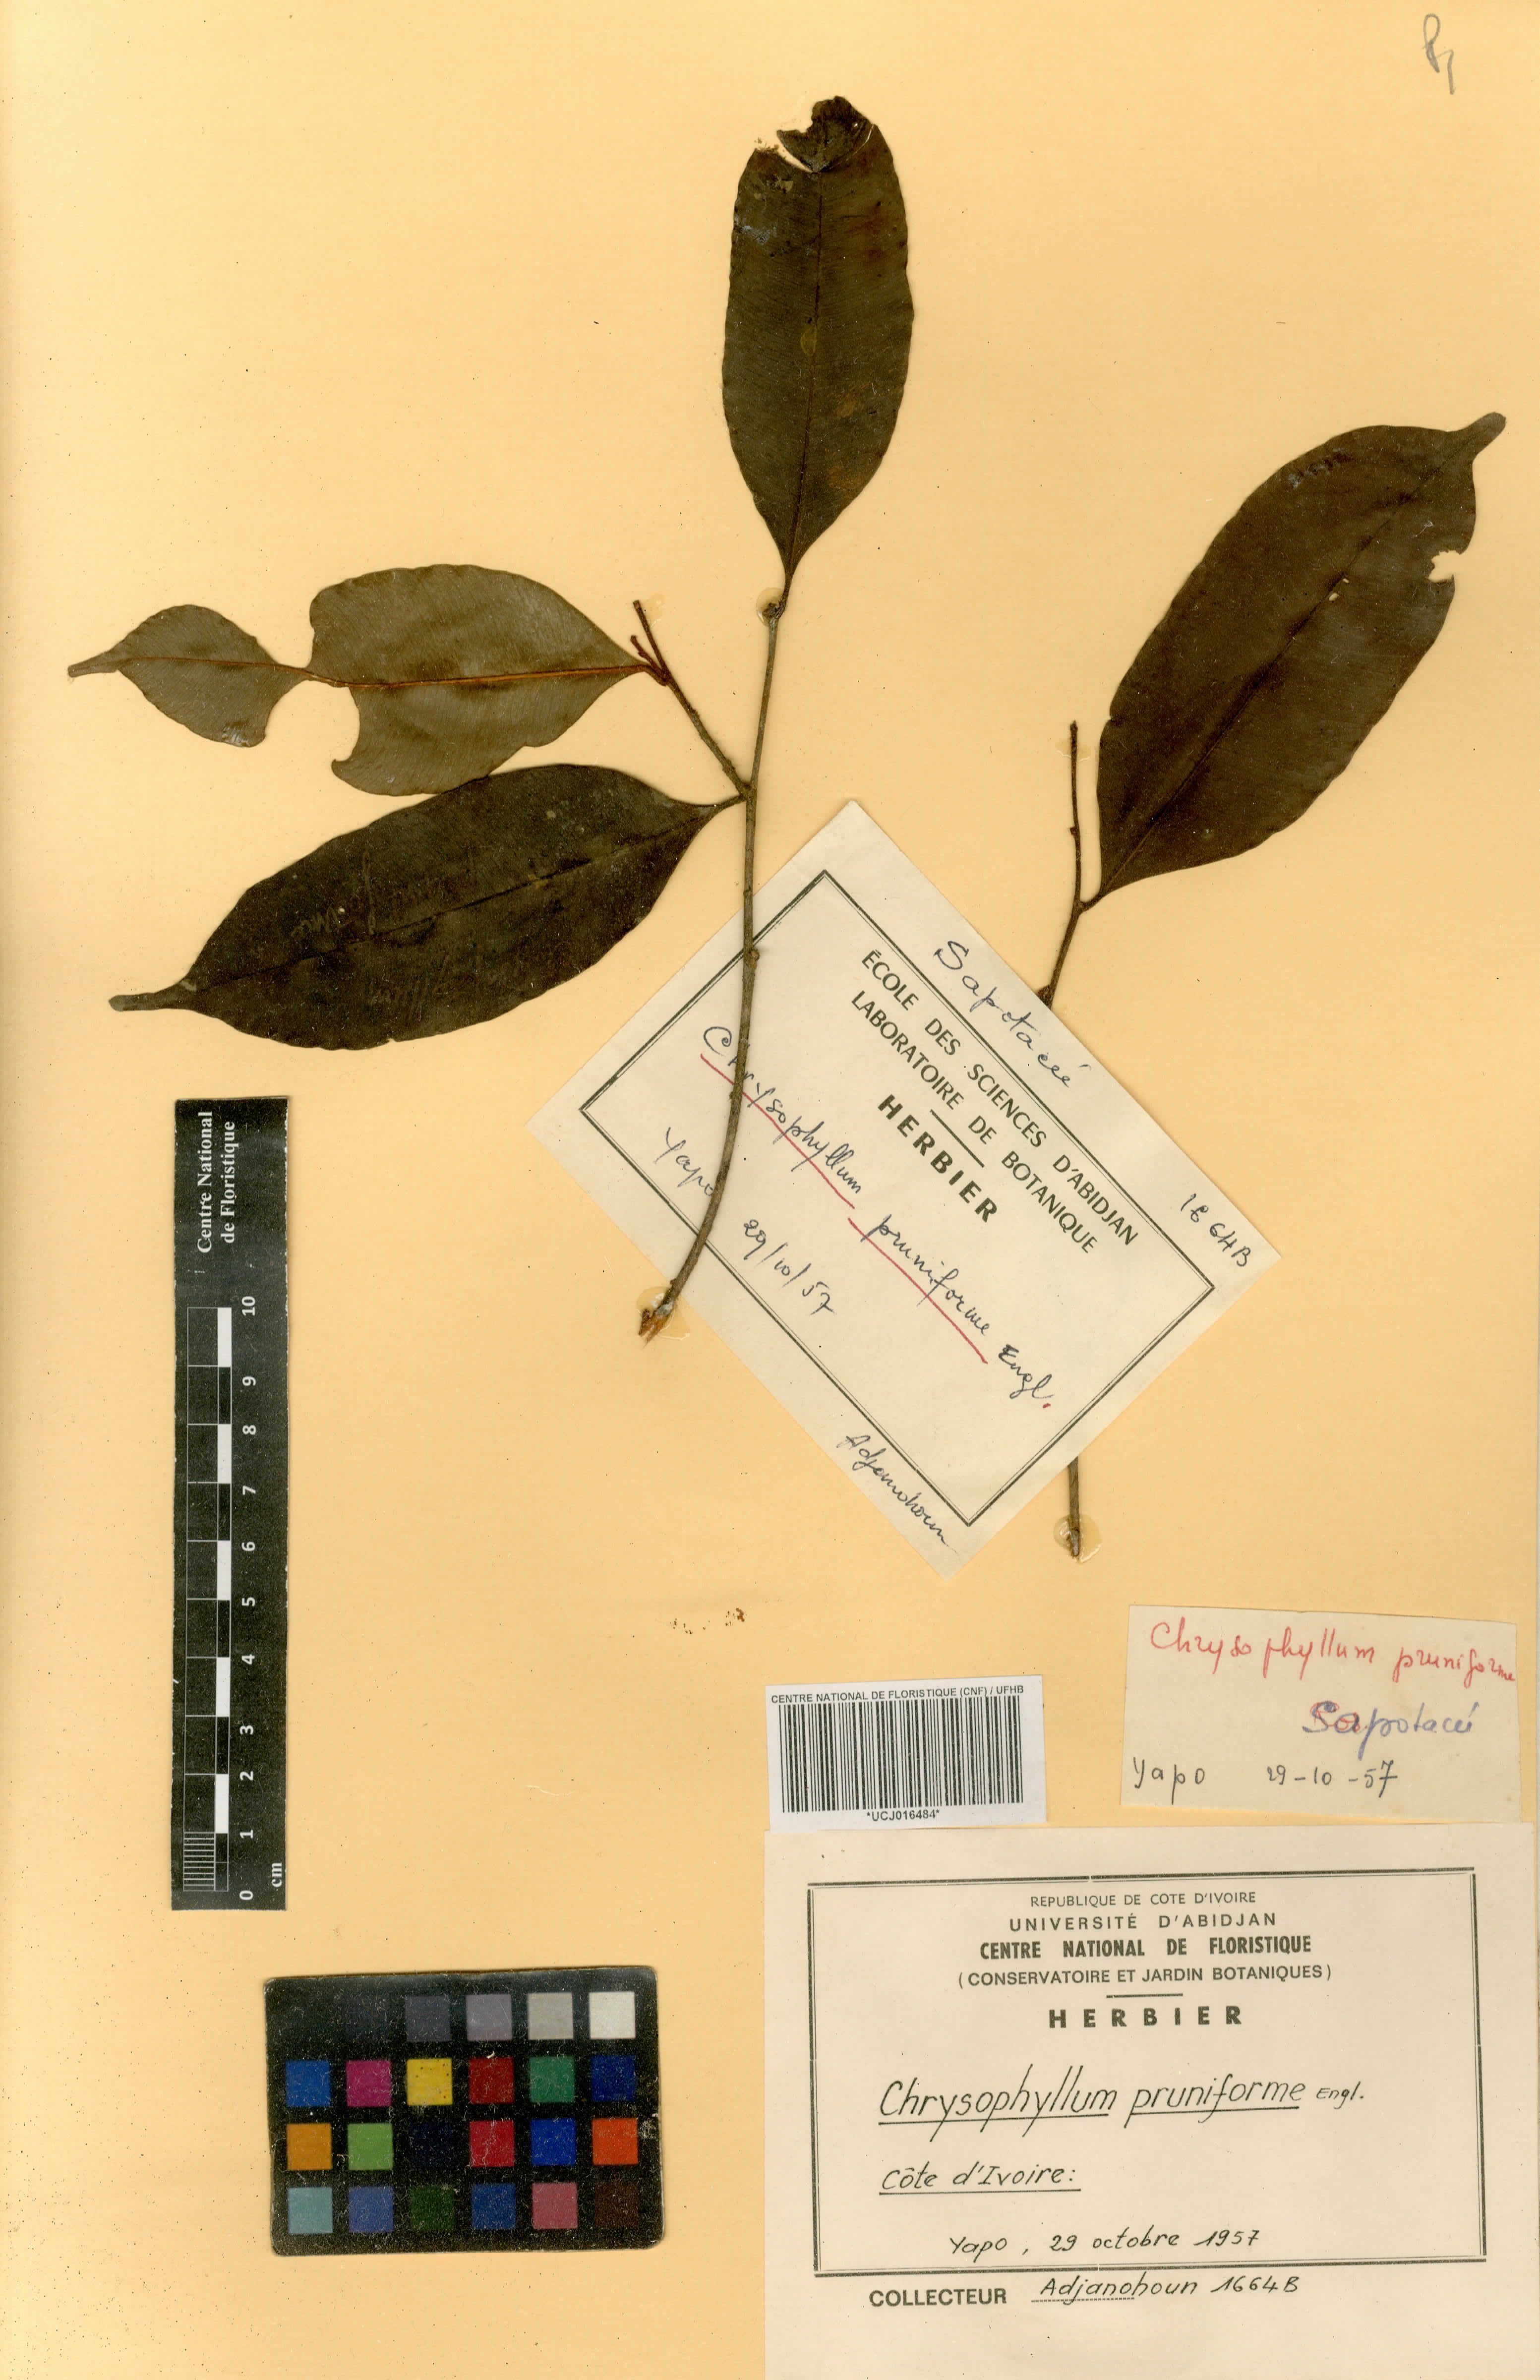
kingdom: Plantae
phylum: Tracheophyta
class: Magnoliopsida
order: Ericales
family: Sapotaceae
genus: Donella
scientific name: Donella pruniformis
